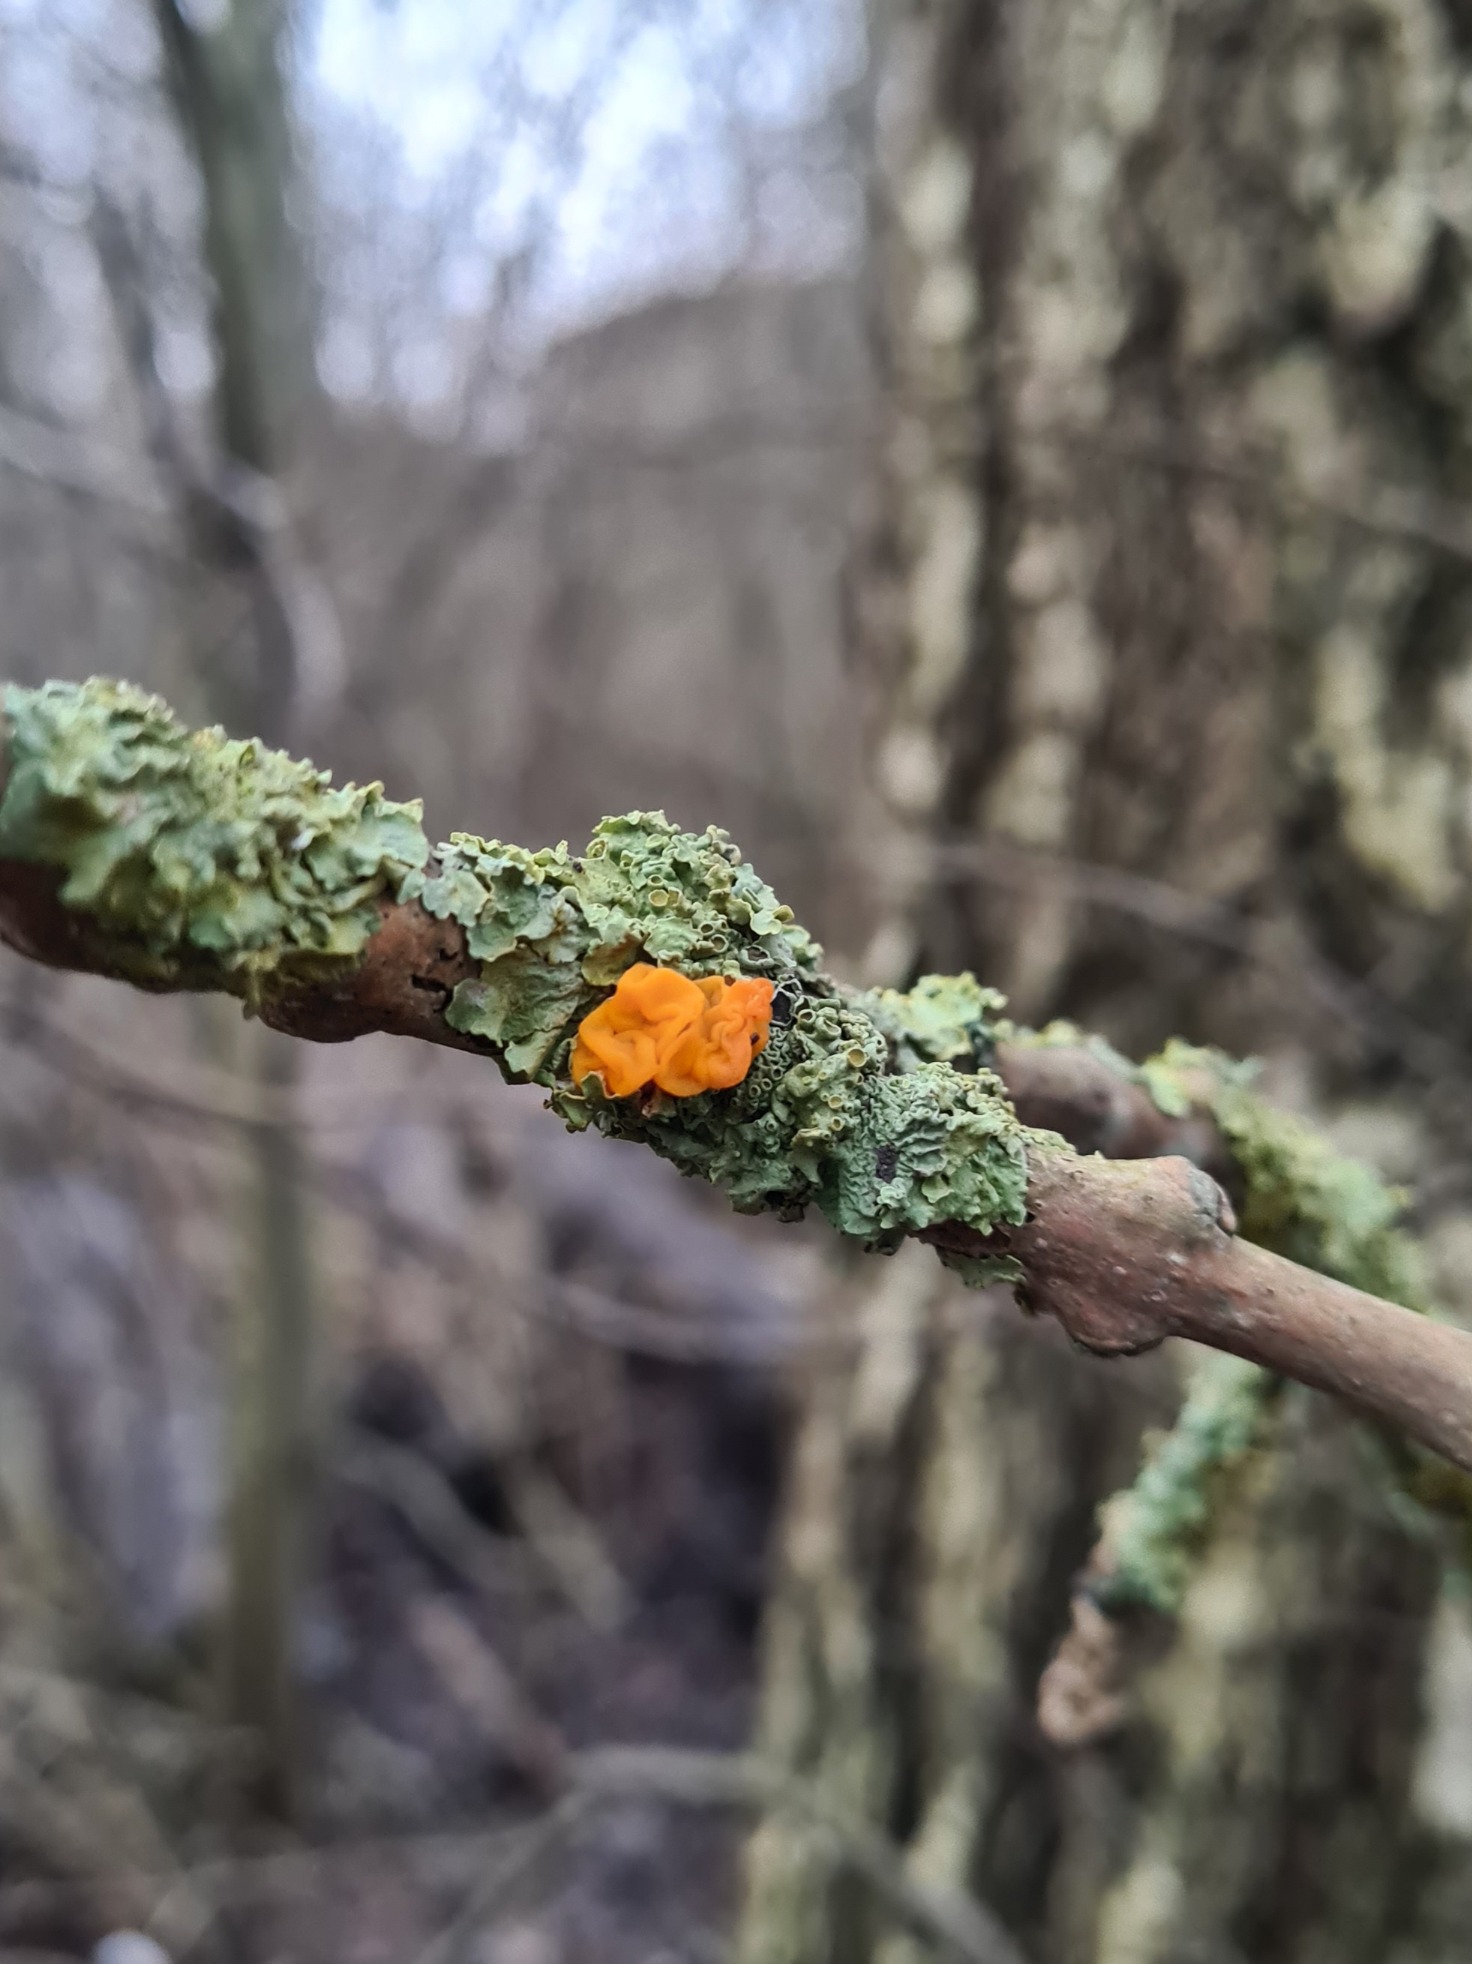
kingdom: Fungi
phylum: Basidiomycota
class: Tremellomycetes
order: Tremellales
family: Tremellaceae
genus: Tremella
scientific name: Tremella mesenterica
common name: Gul bævresvamp
